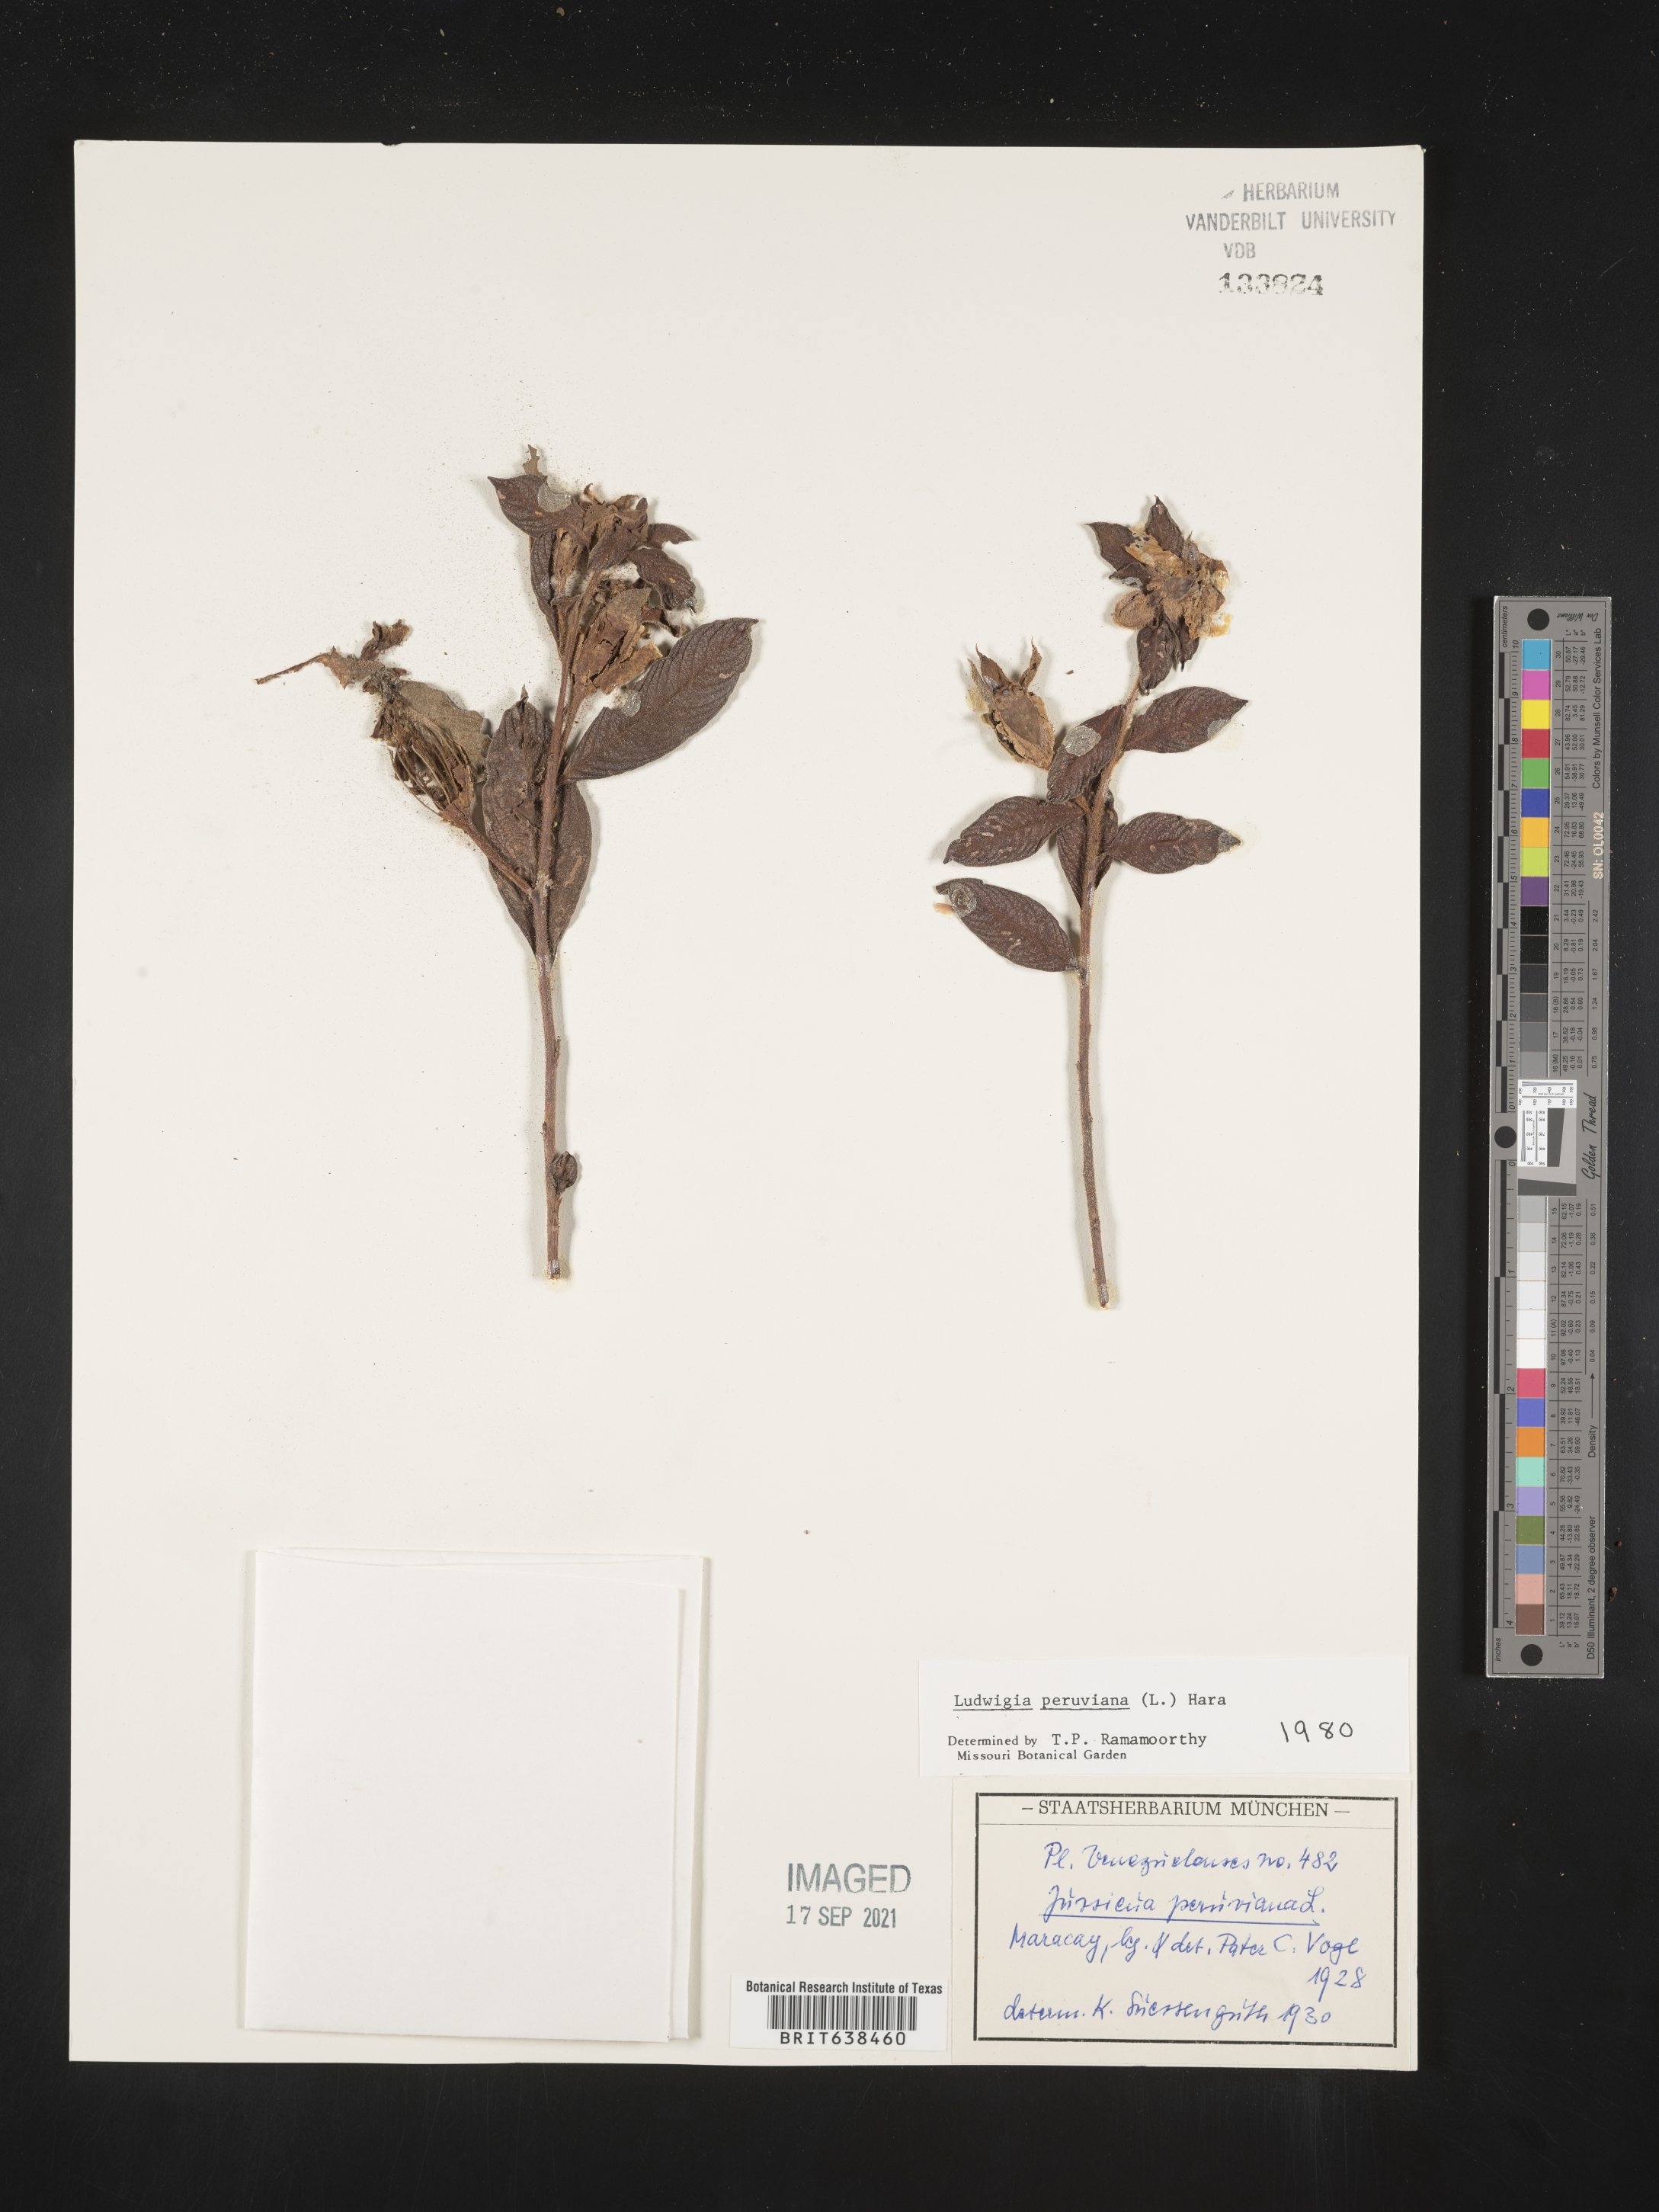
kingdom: Plantae
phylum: Tracheophyta
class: Magnoliopsida
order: Myrtales
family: Onagraceae
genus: Ludwigia
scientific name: Ludwigia
